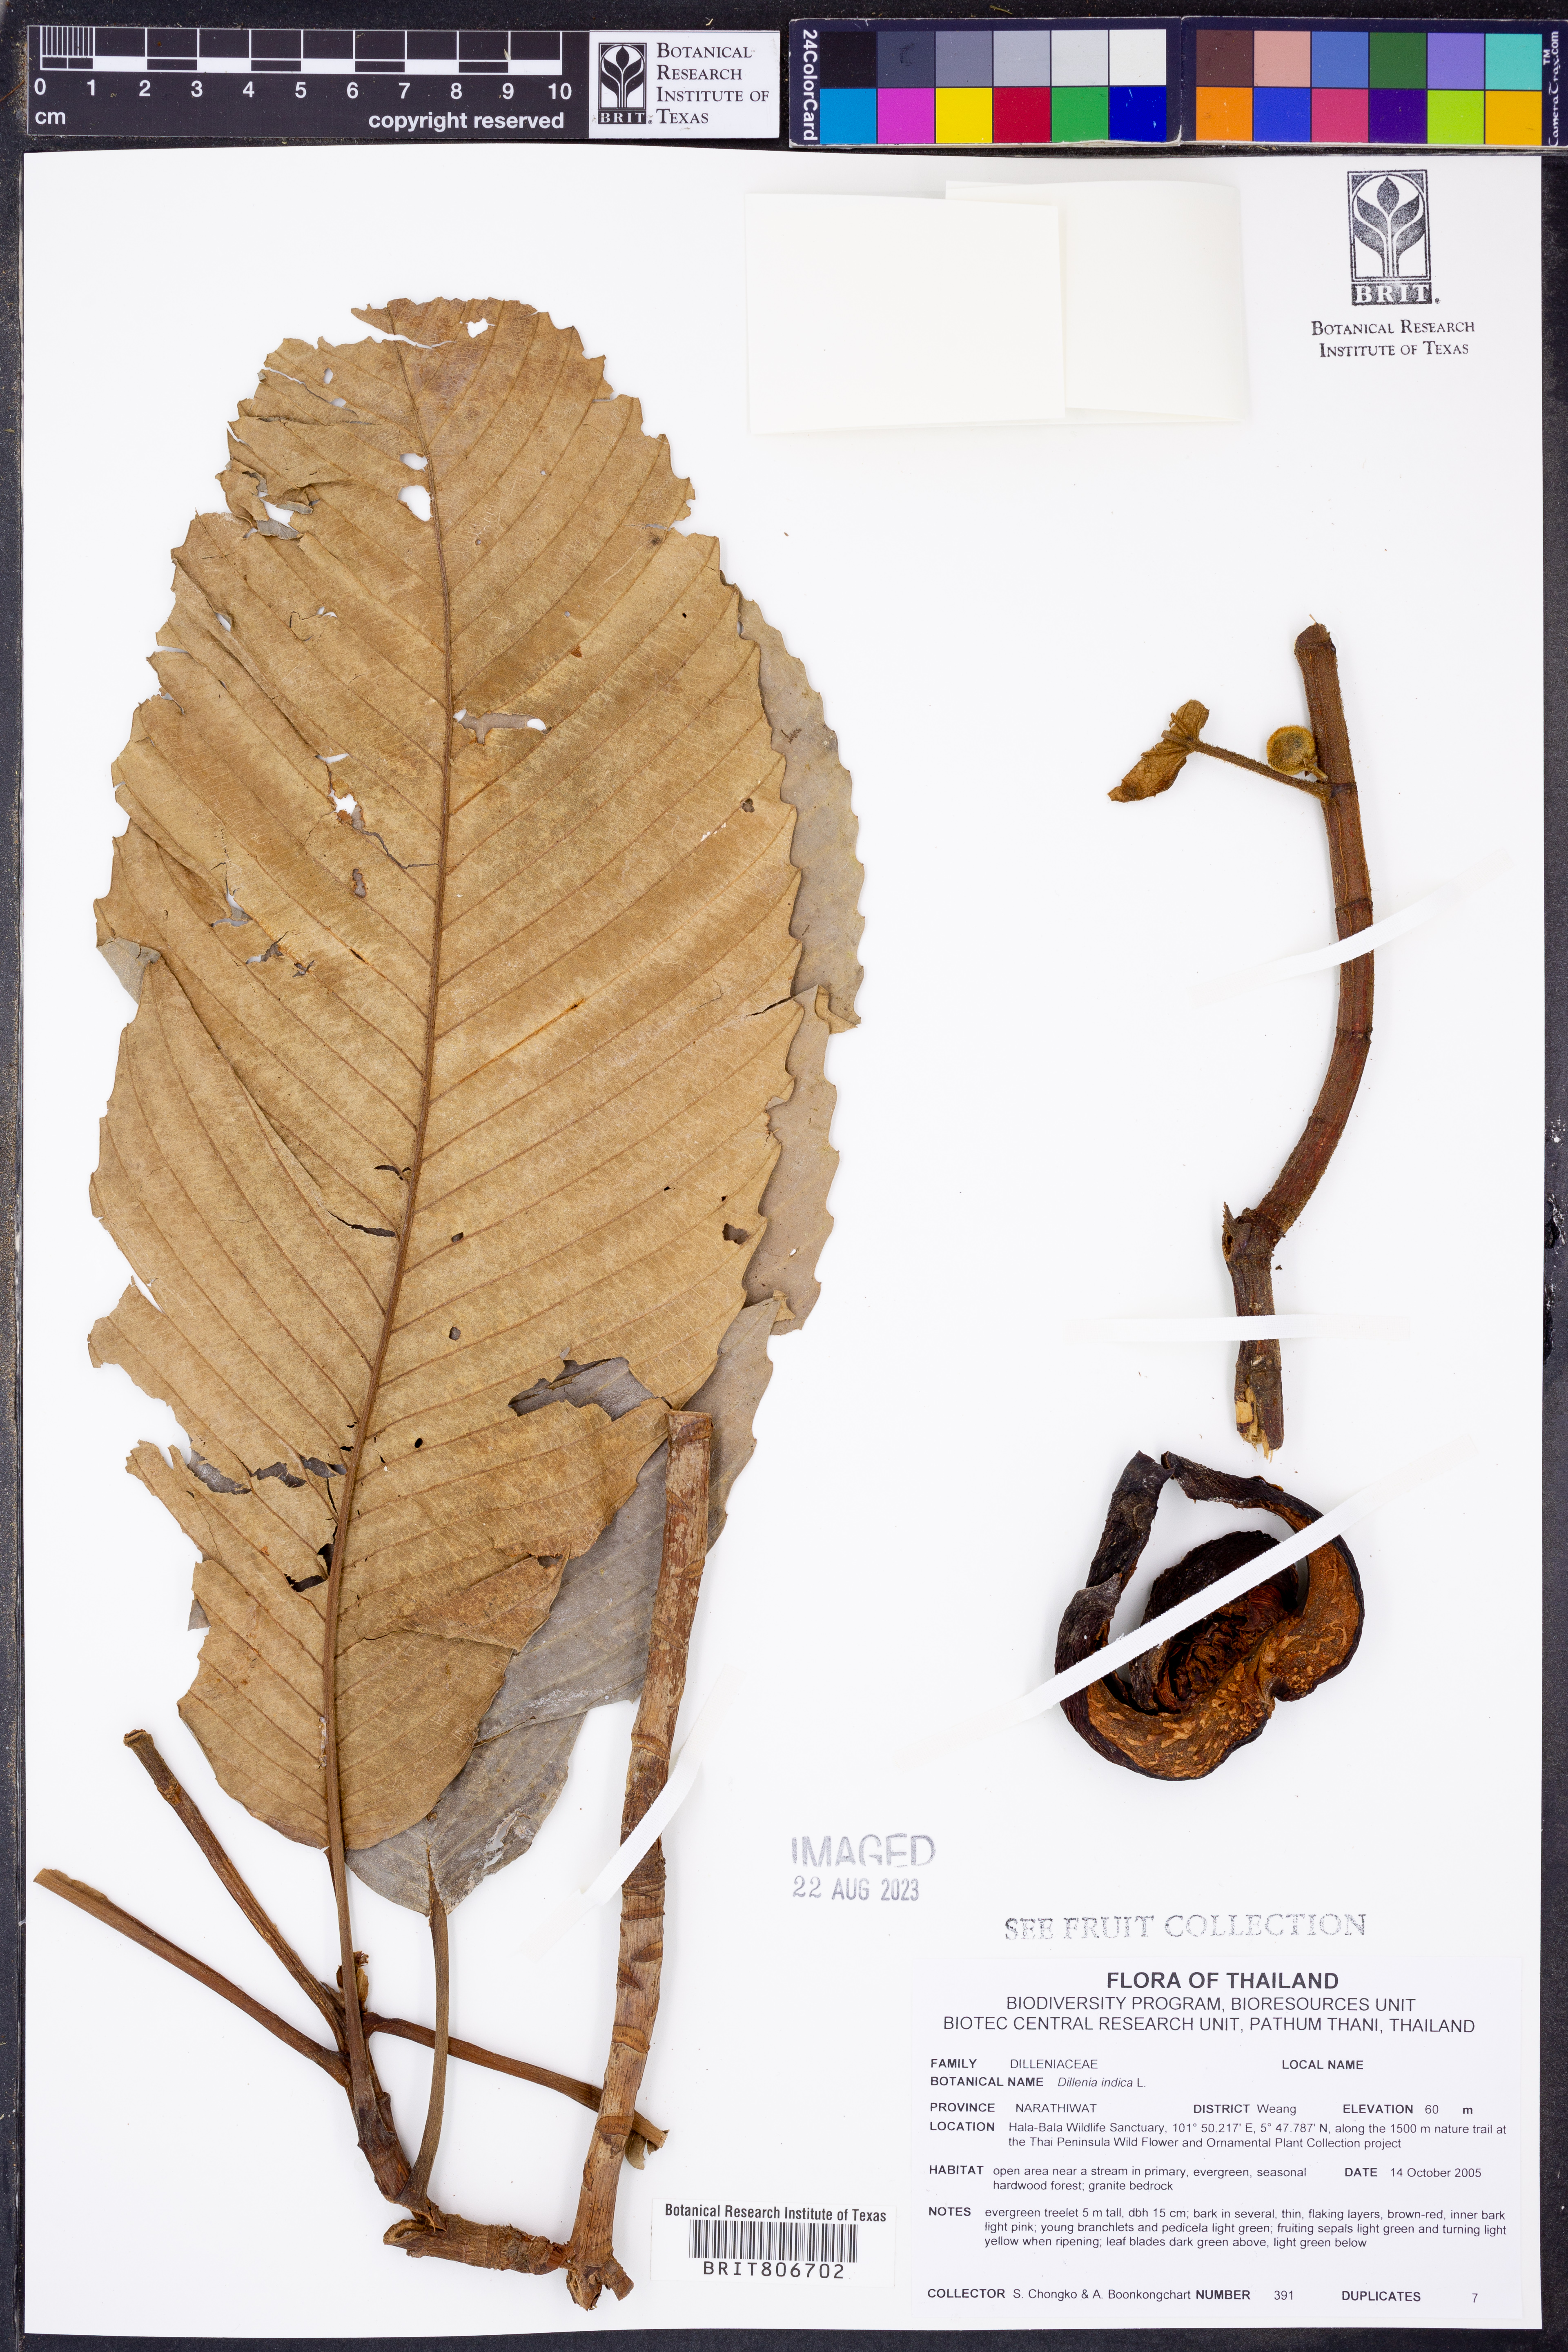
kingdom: Plantae
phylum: Tracheophyta
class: Magnoliopsida
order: Dilleniales
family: Dilleniaceae
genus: Dillenia
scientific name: Dillenia indica
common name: Elephant apple
